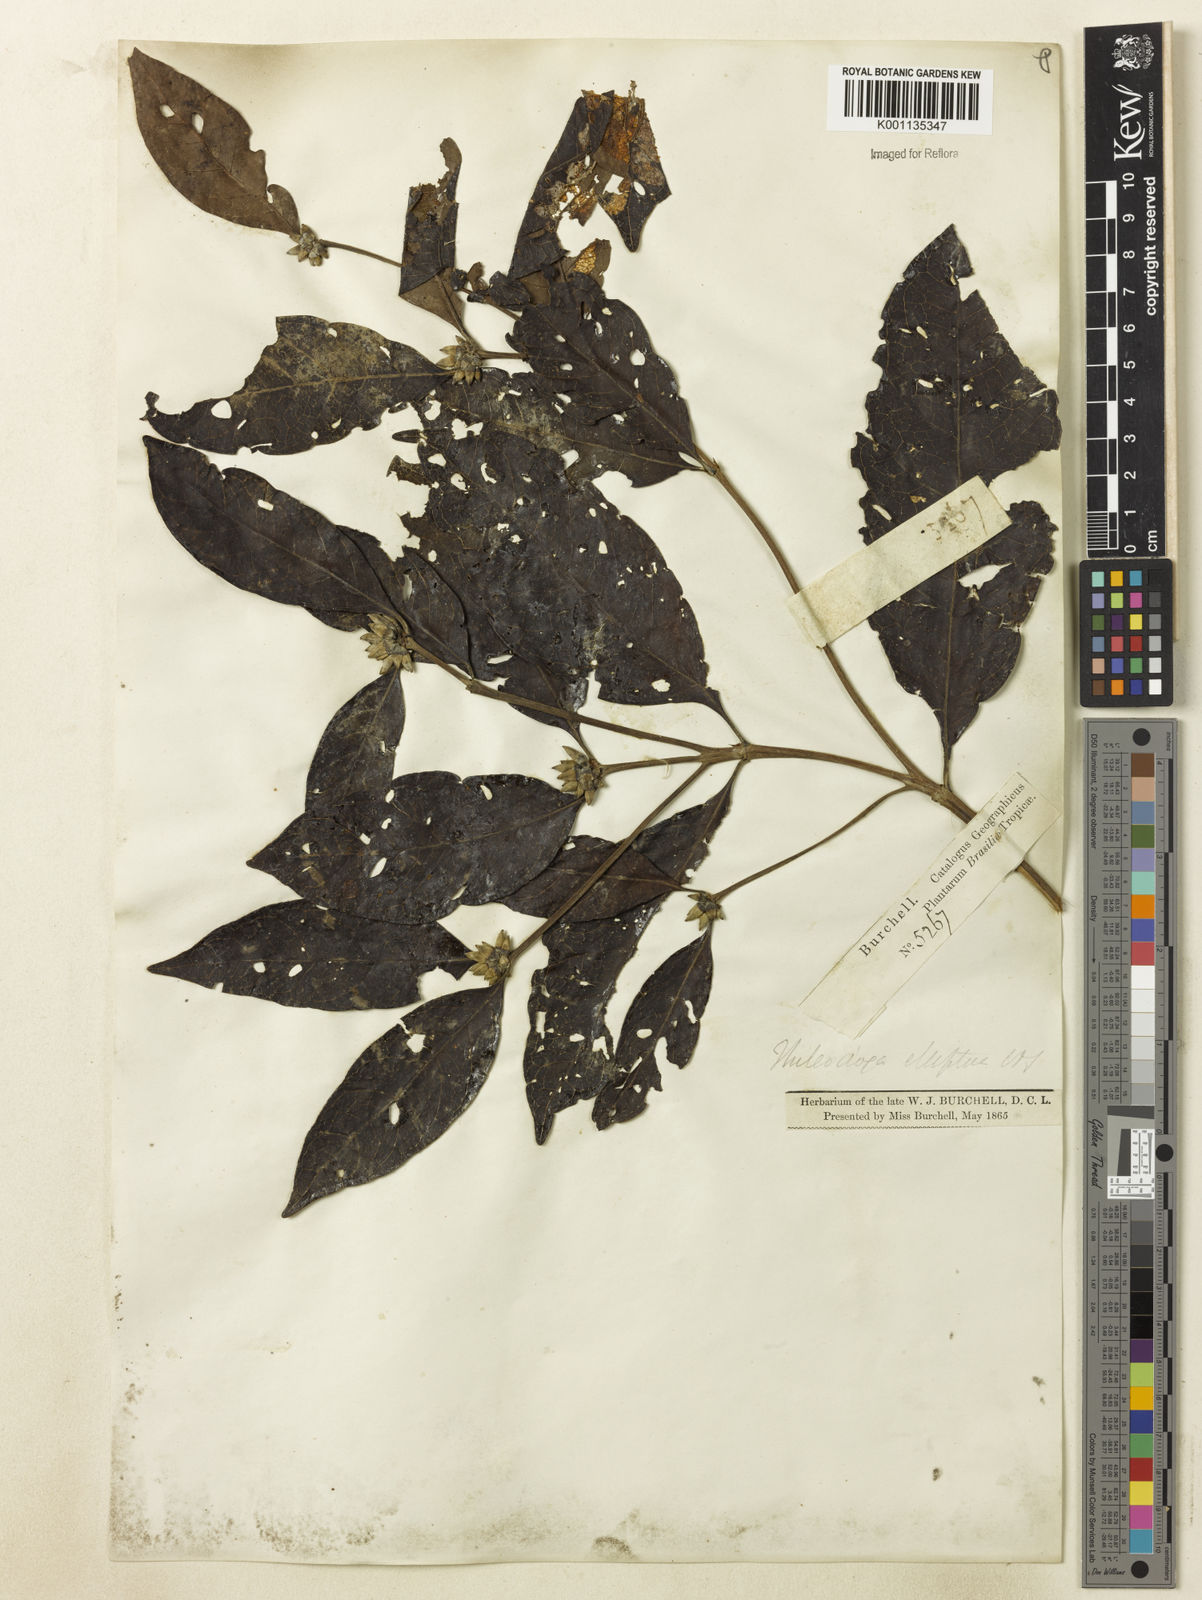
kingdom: Plantae
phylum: Tracheophyta
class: Magnoliopsida
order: Gentianales
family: Rubiaceae
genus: Cordiera
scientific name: Cordiera elliptica
